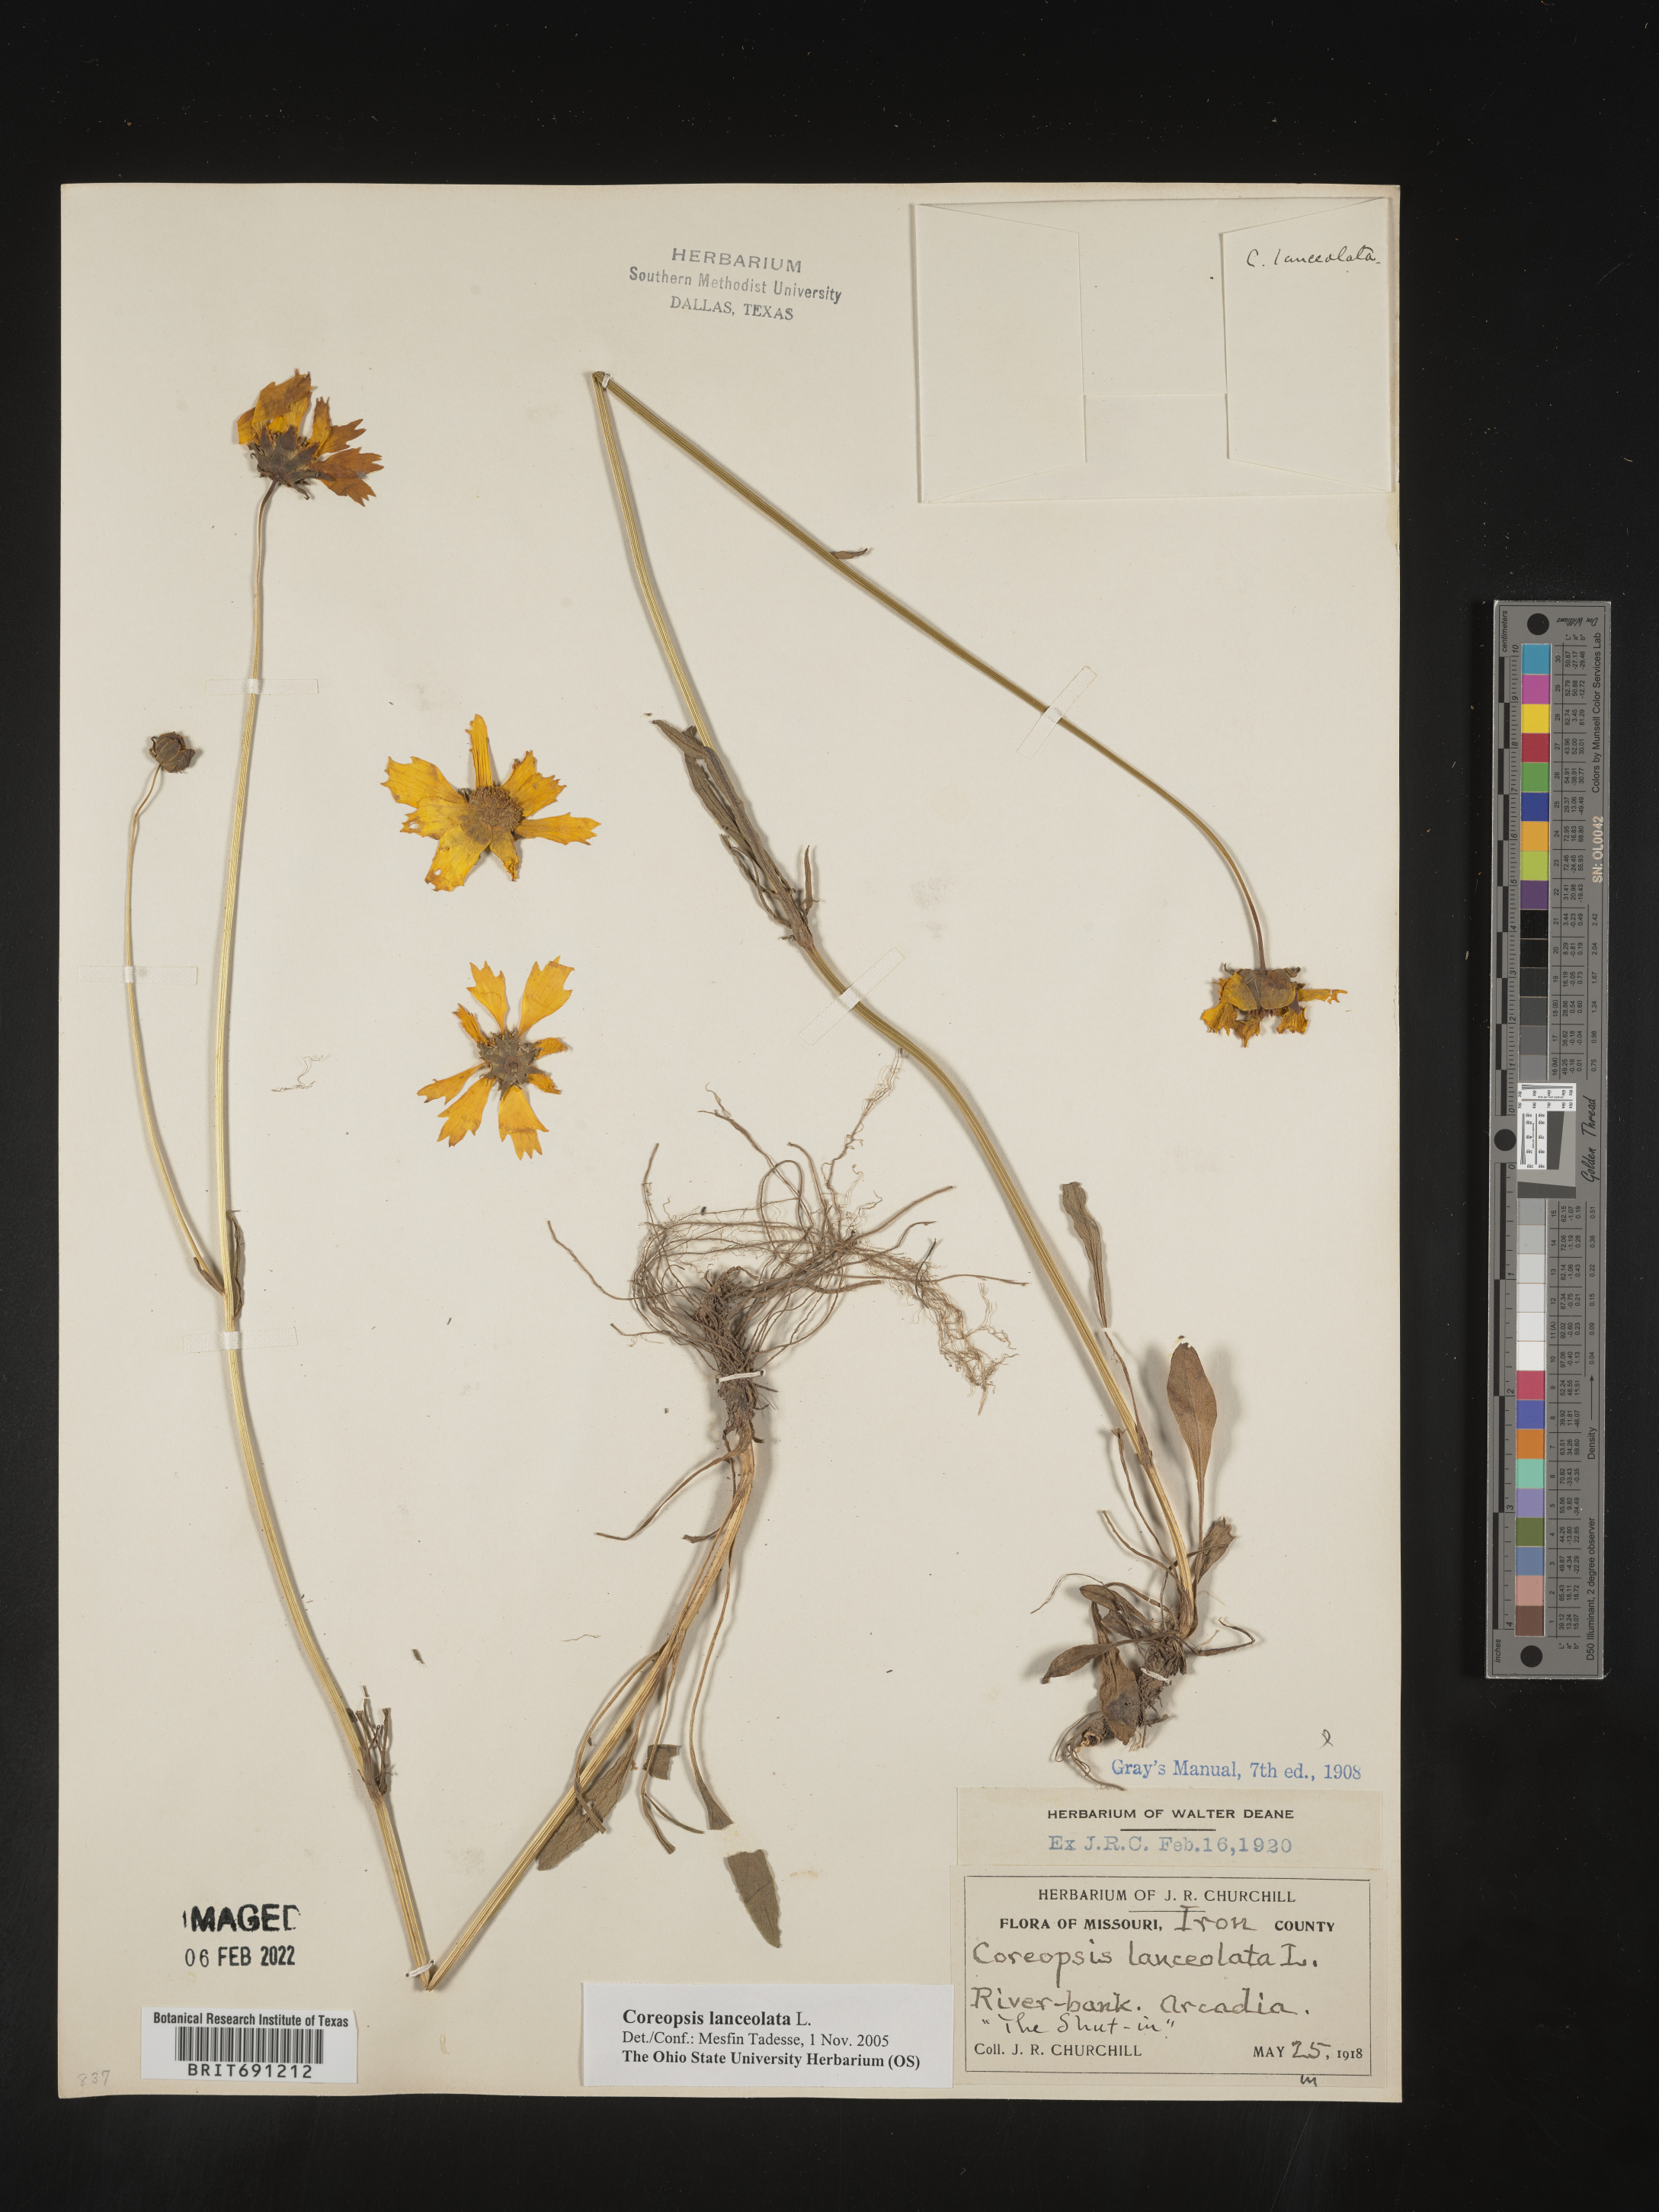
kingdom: Plantae
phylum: Tracheophyta
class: Magnoliopsida
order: Asterales
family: Asteraceae
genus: Coreopsis
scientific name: Coreopsis lanceolata
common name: Garden coreopsis
